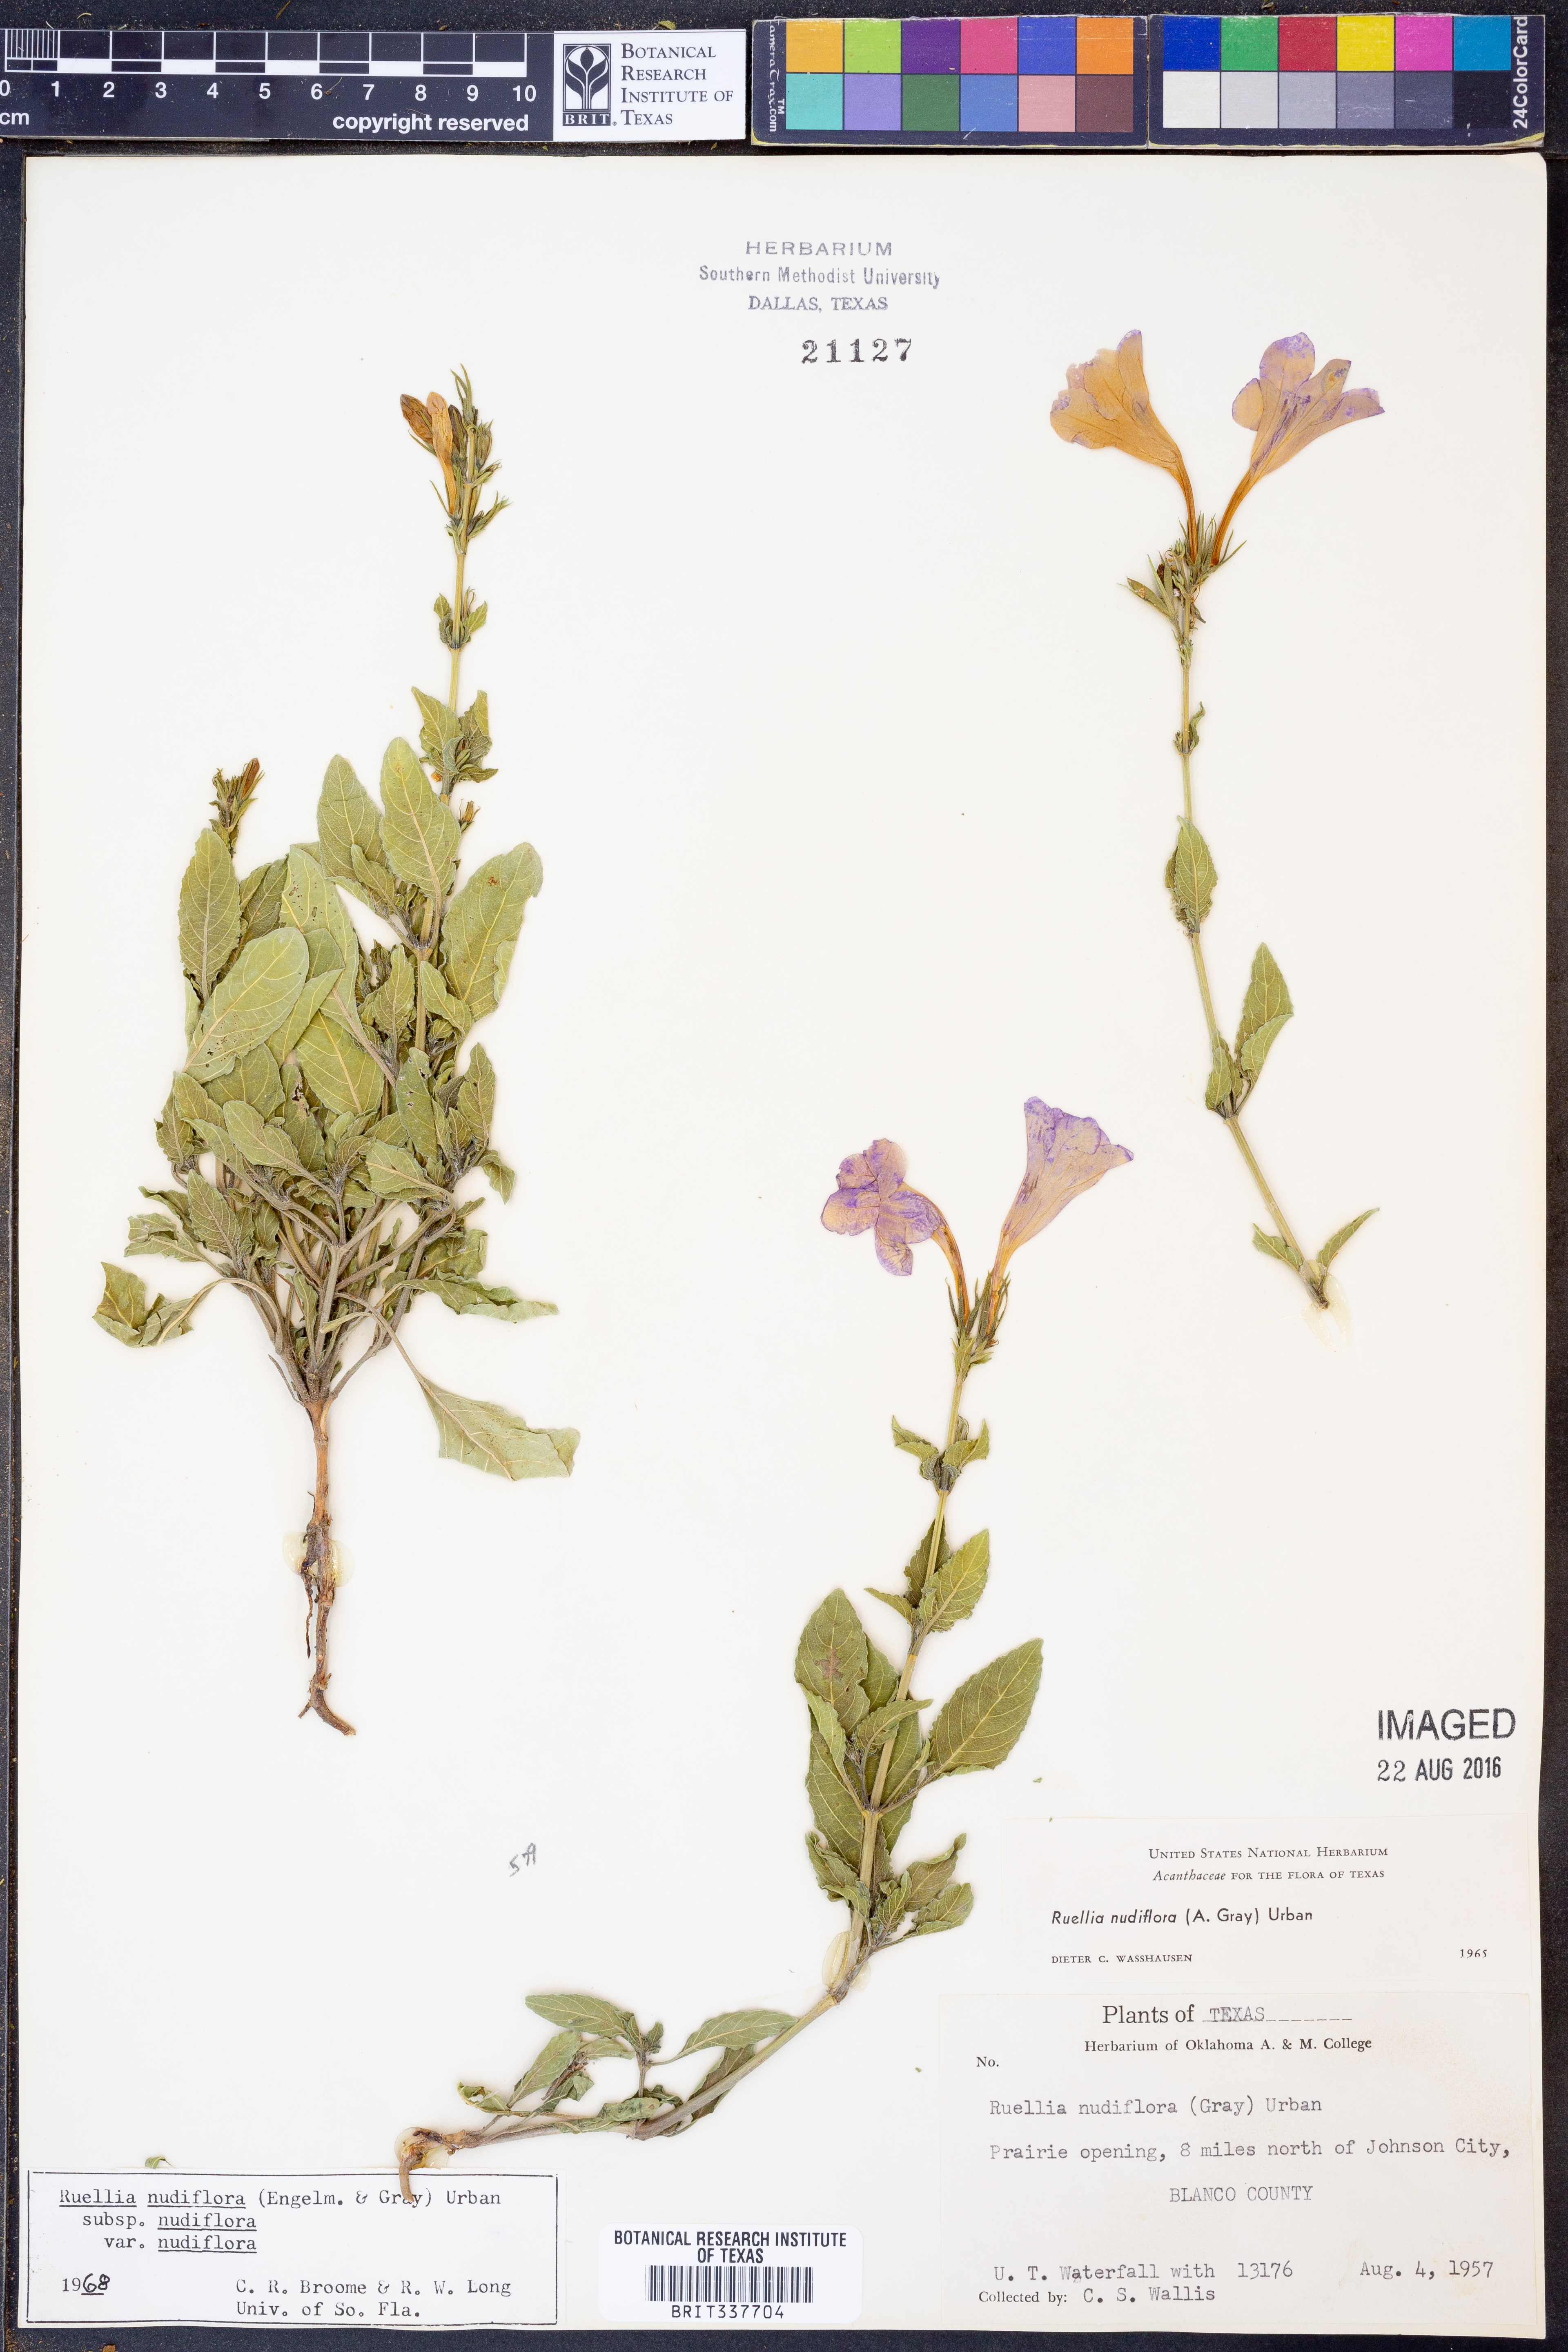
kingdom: Plantae
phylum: Tracheophyta
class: Magnoliopsida
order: Lamiales
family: Acanthaceae
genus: Ruellia
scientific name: Ruellia ciliatiflora
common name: Hairyflower wild petunia
